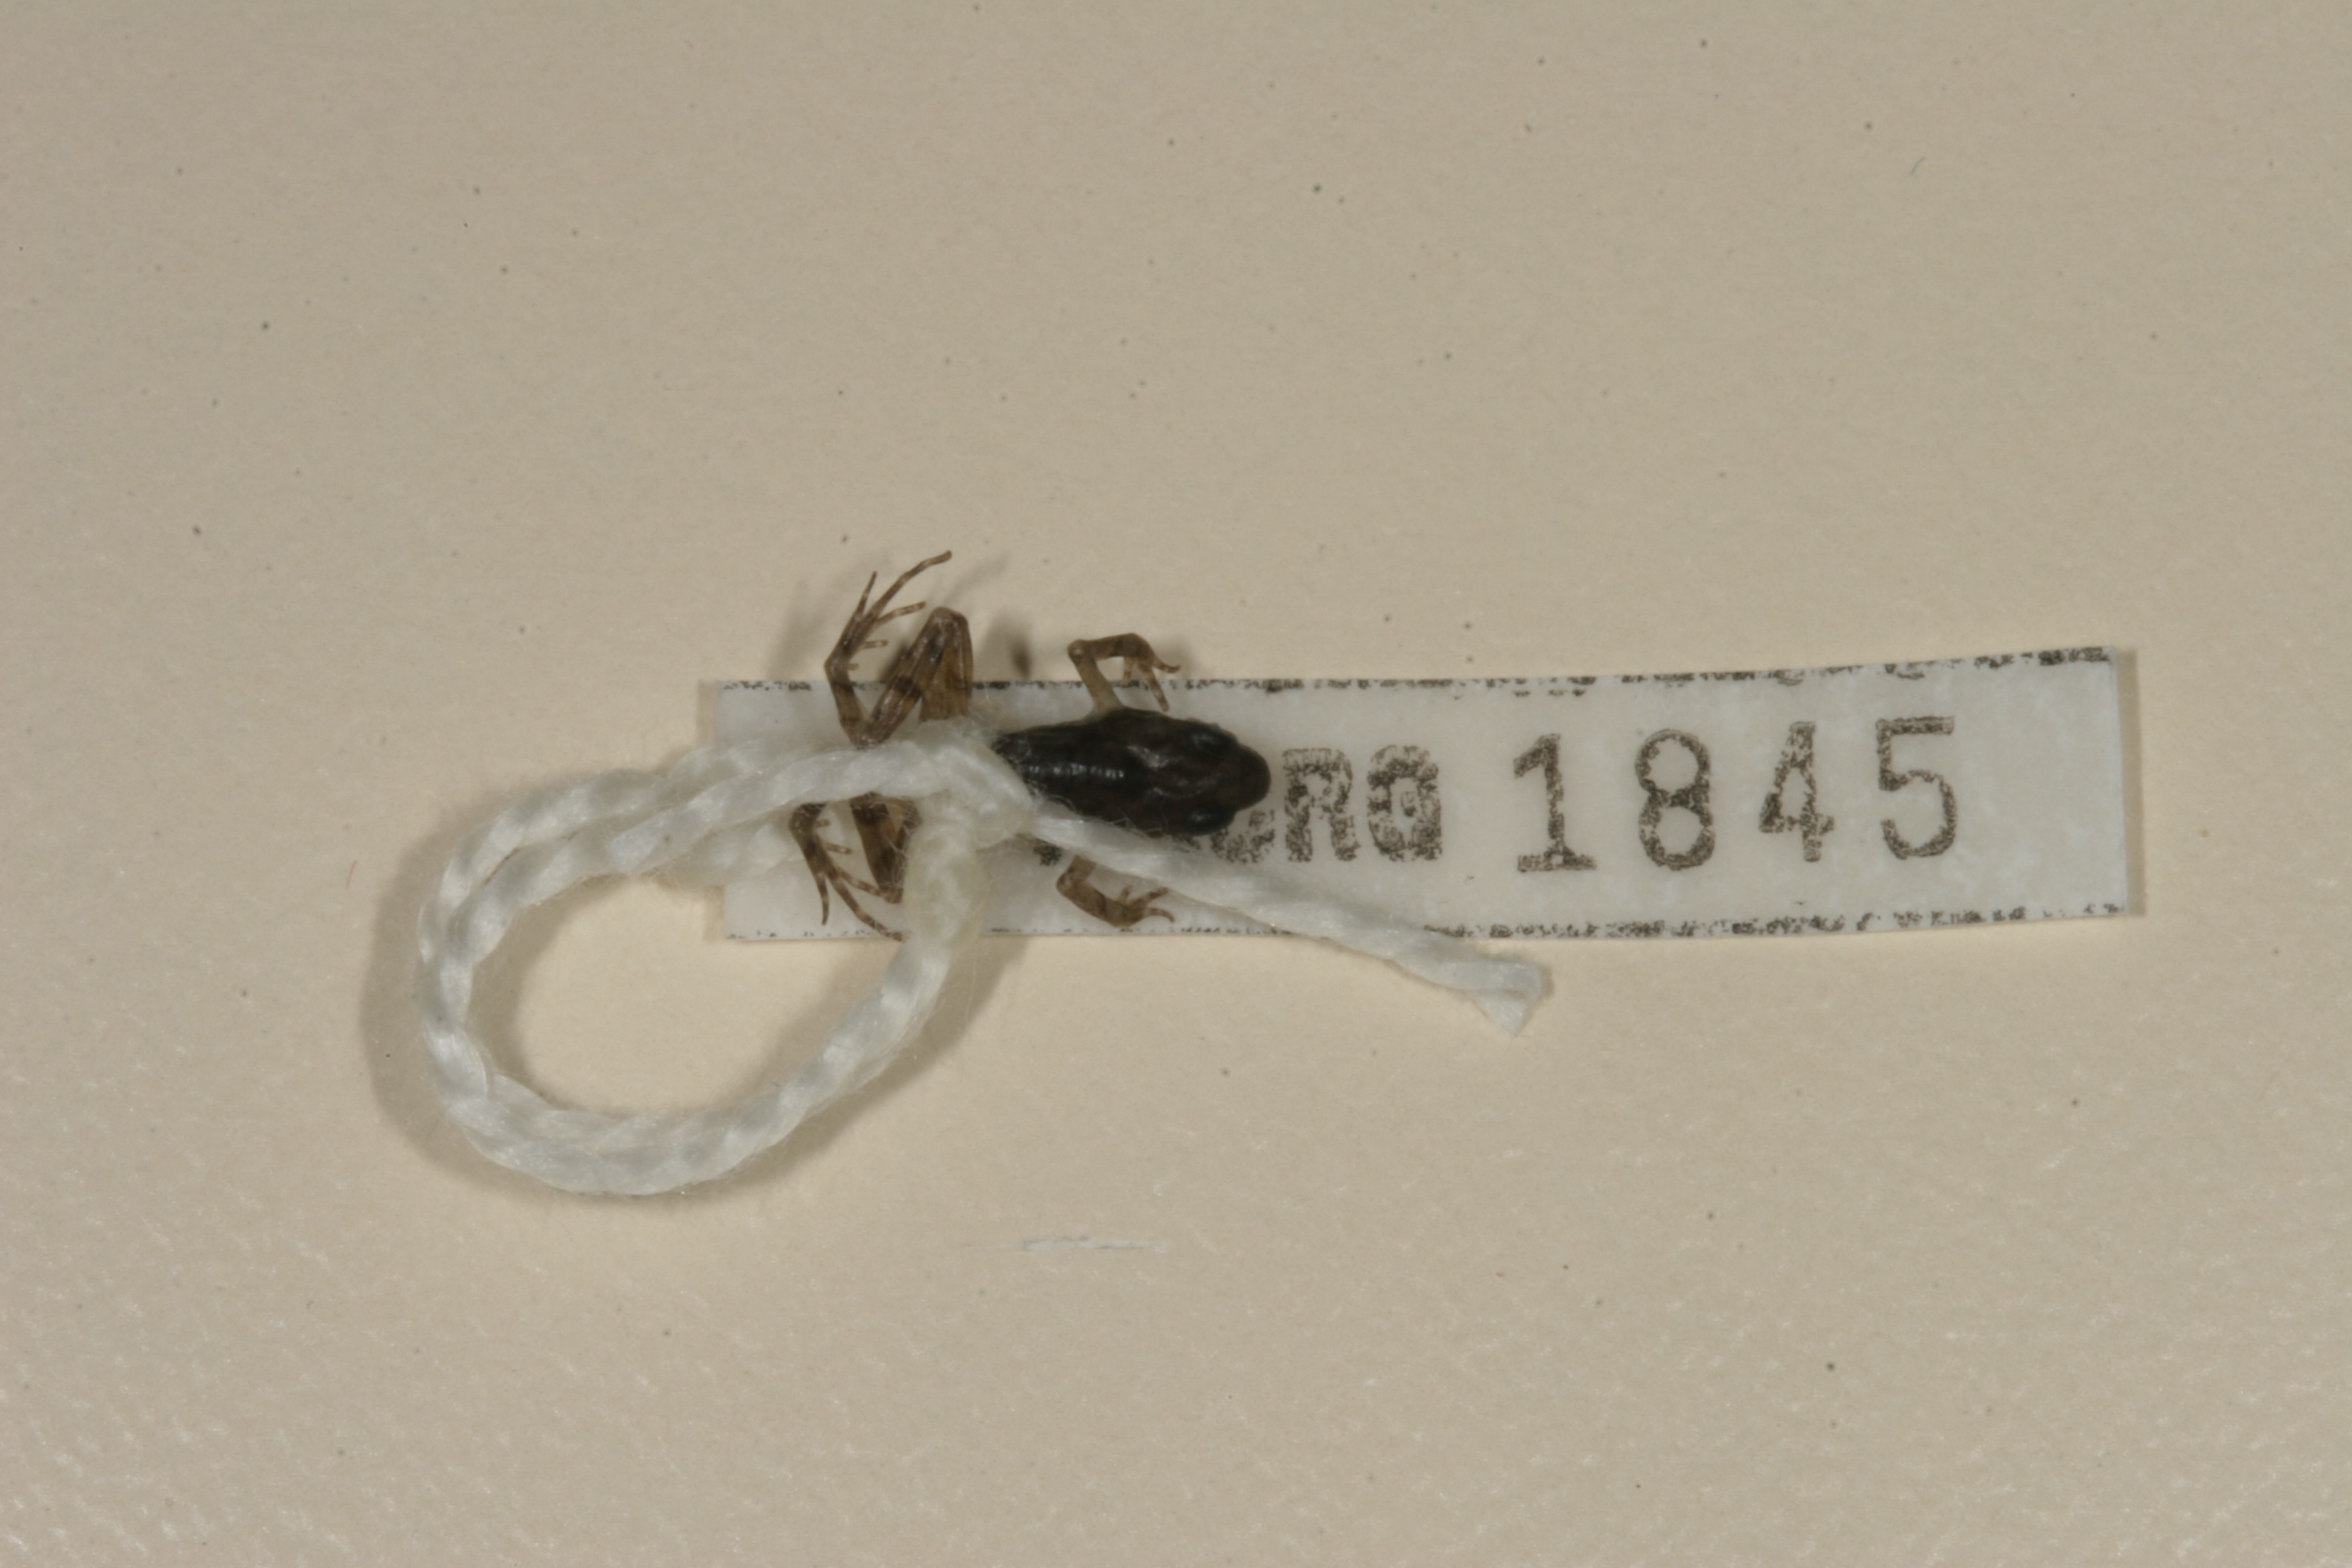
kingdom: Animalia
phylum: Chordata
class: Amphibia
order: Anura
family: Phrynobatrachidae
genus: Phrynobatrachus
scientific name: Phrynobatrachus mababiensis
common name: Dwarf puddle frog
